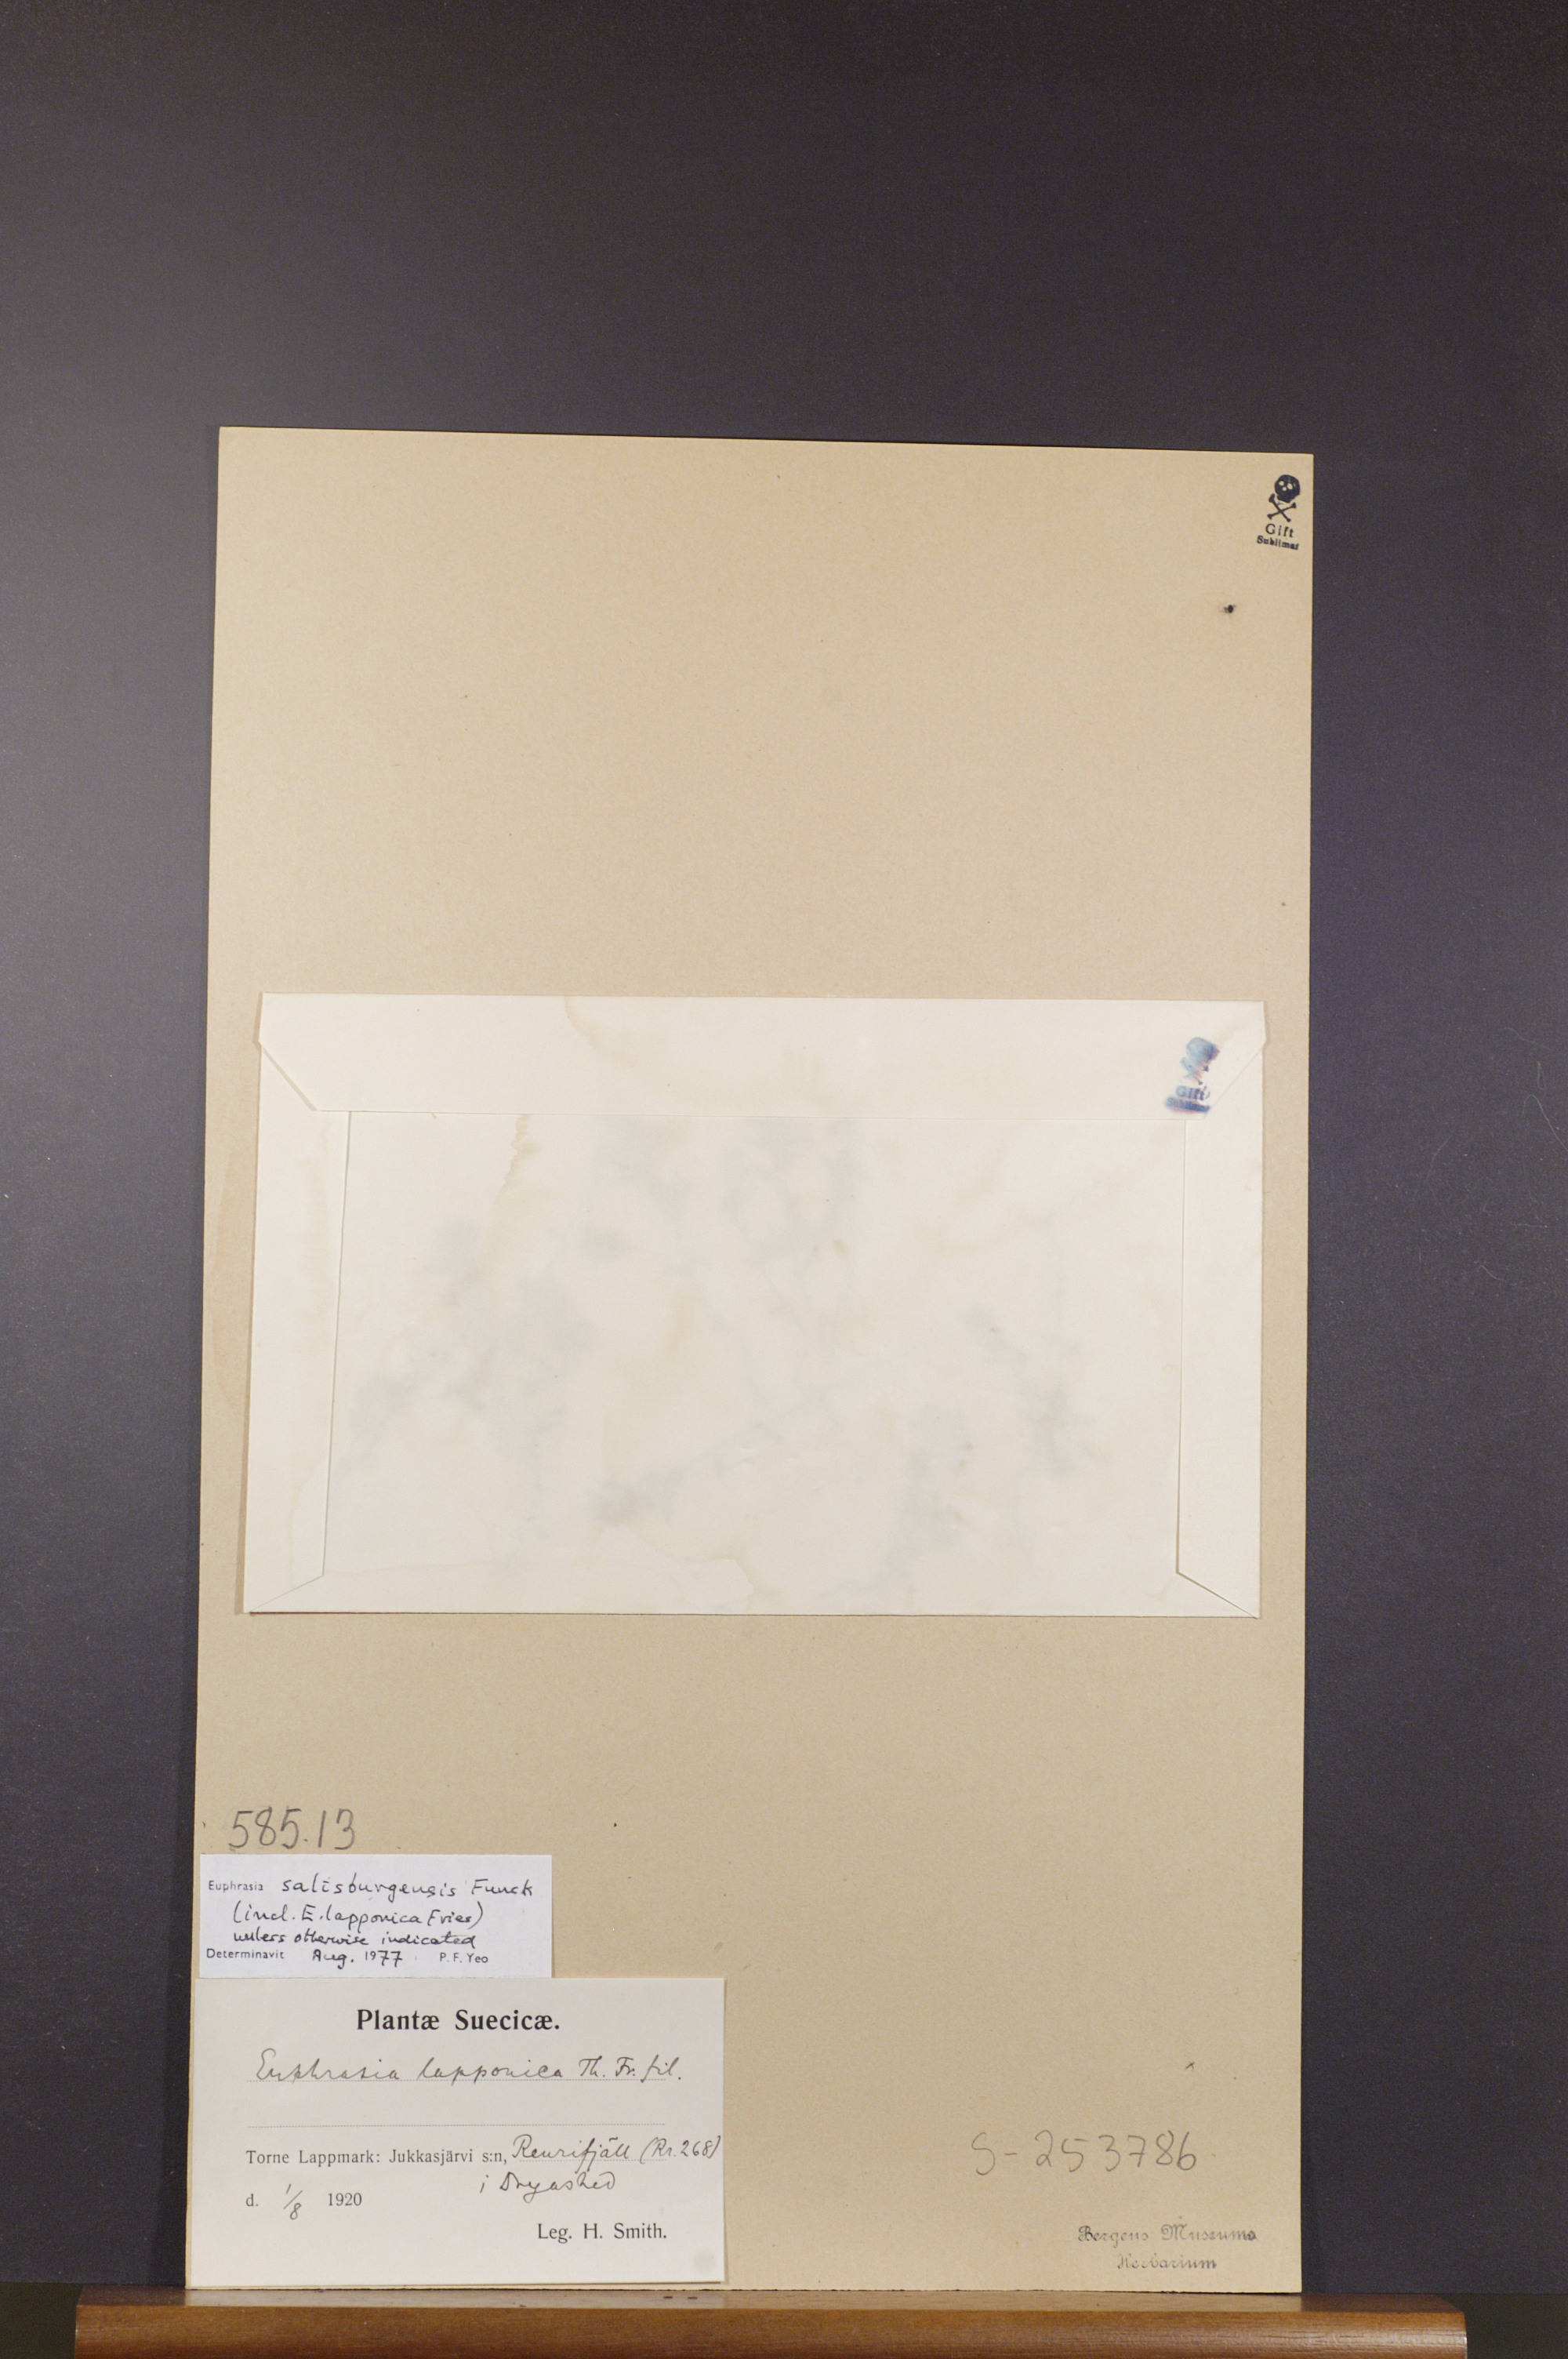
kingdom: Plantae
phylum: Tracheophyta
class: Magnoliopsida
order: Lamiales
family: Orobanchaceae
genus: Euphrasia
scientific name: Euphrasia salisburgensis
